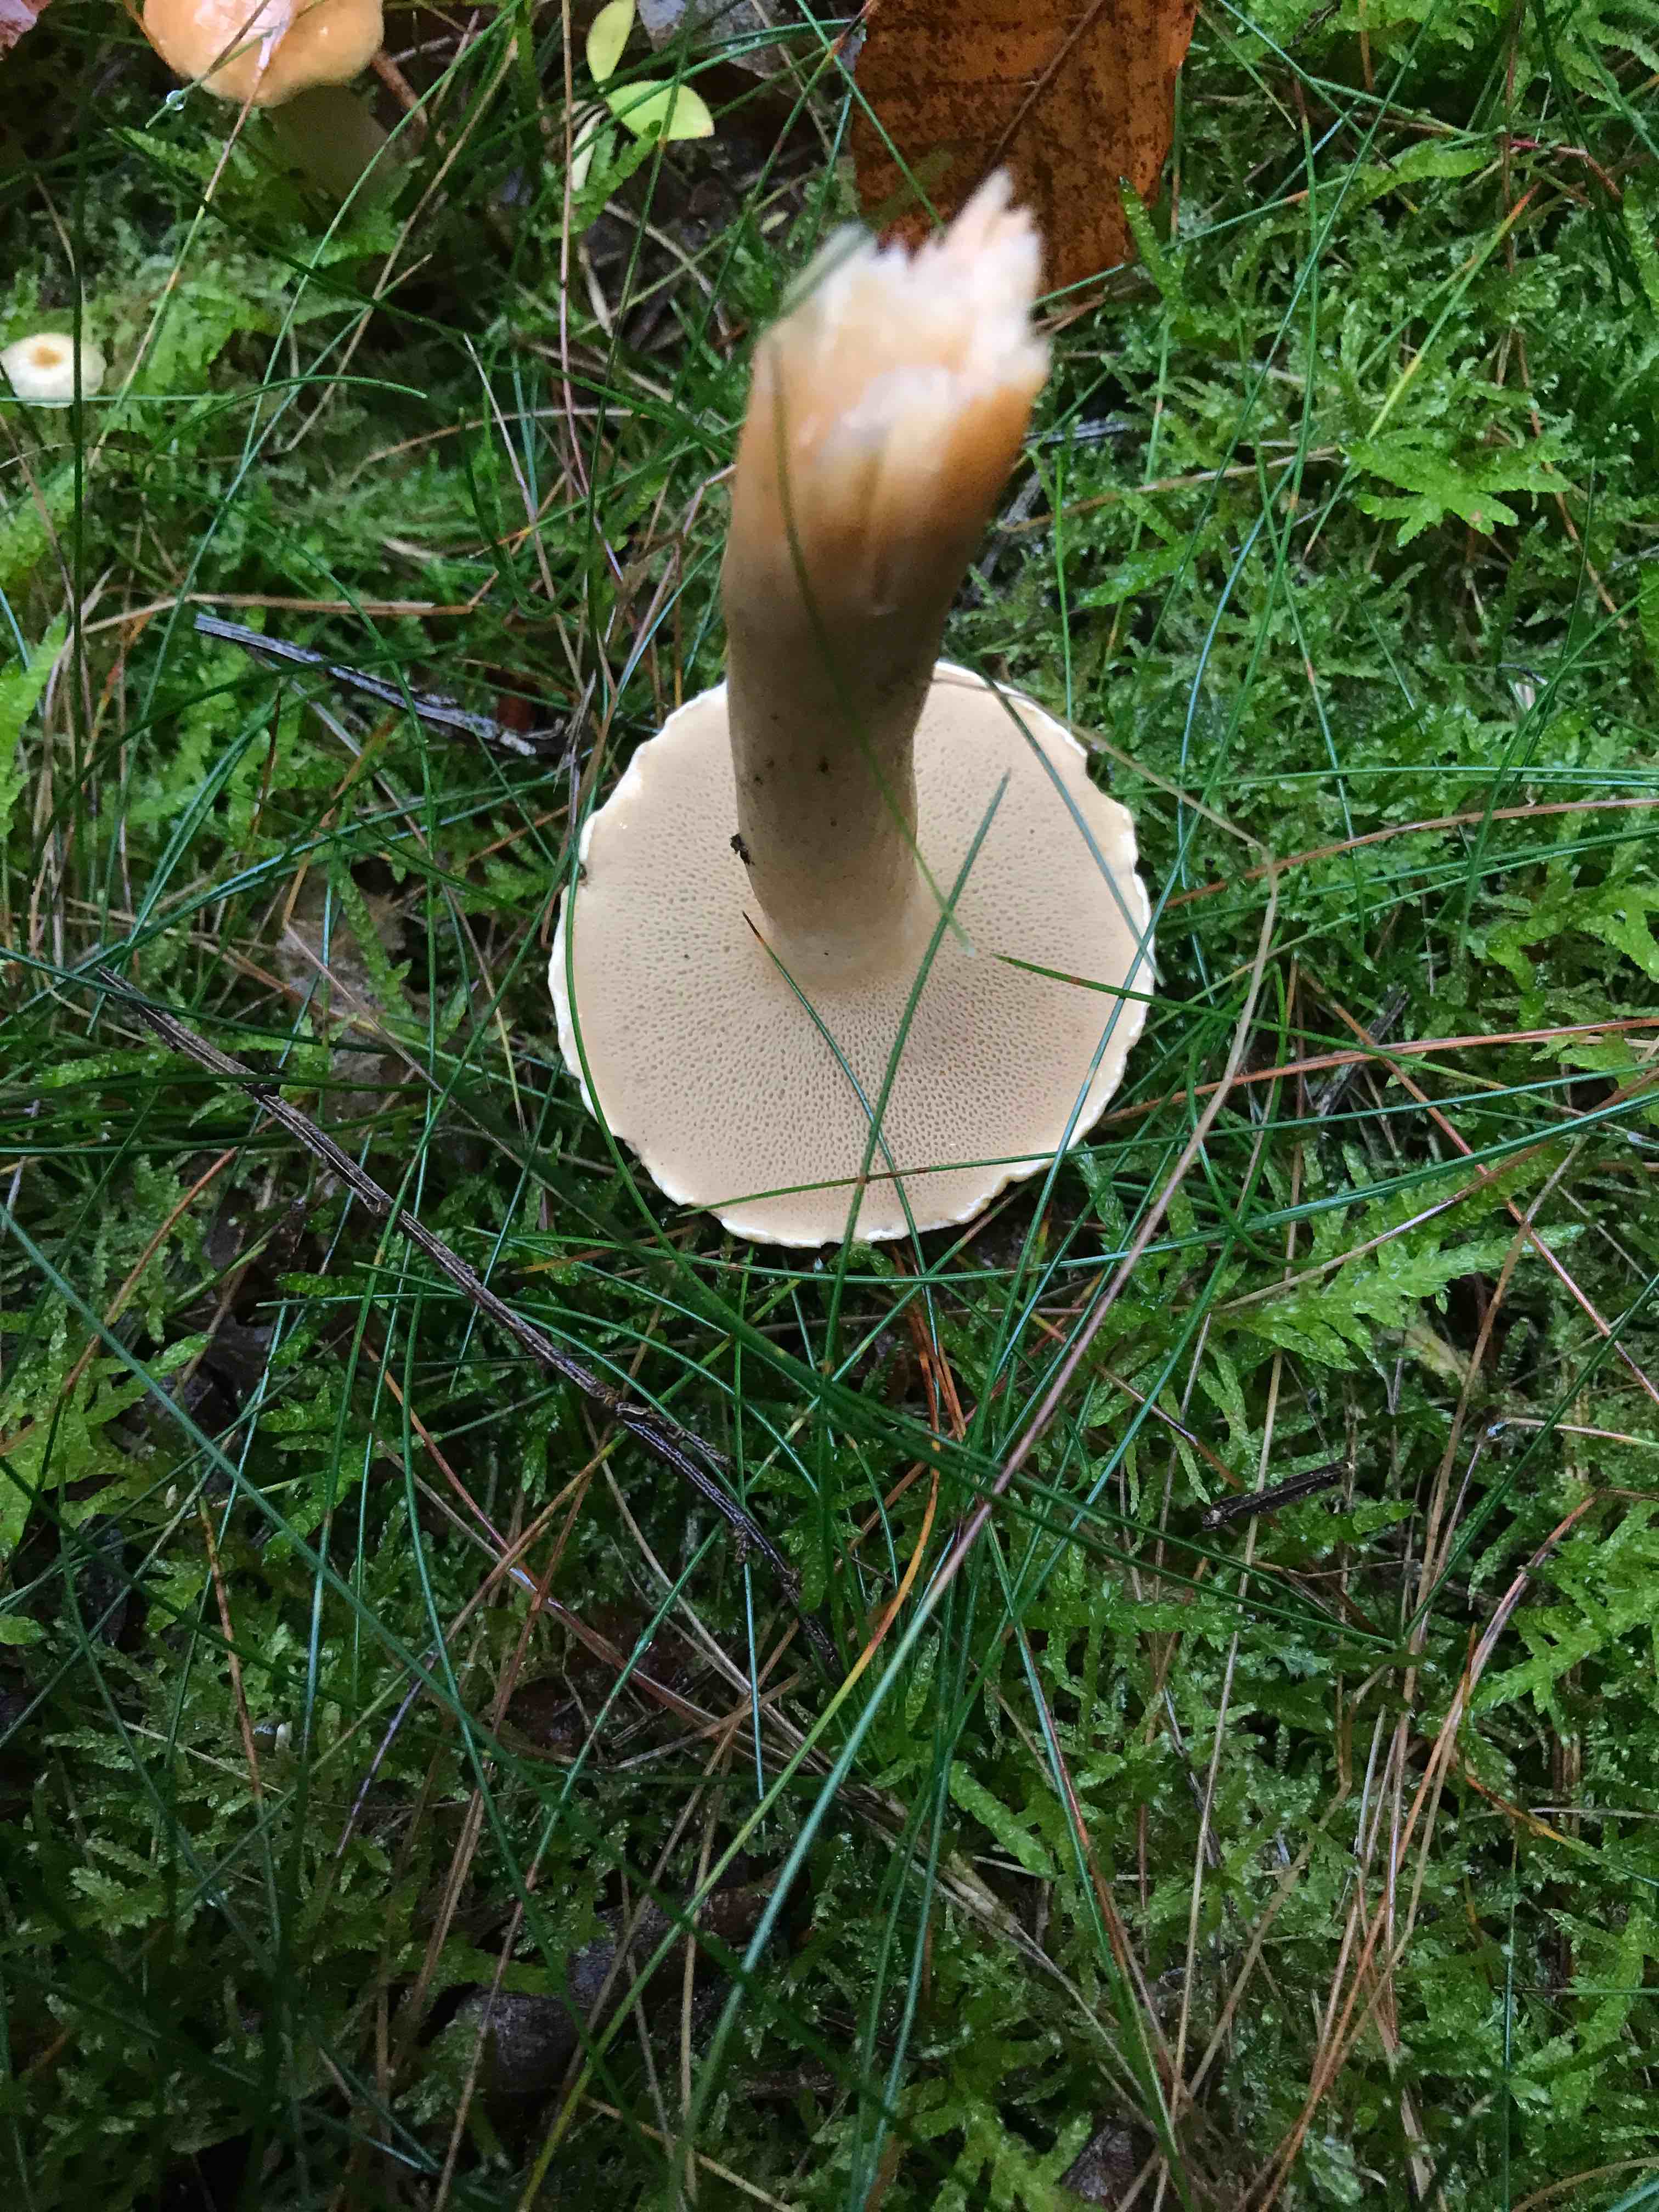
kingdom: Fungi
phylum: Basidiomycota
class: Agaricomycetes
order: Boletales
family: Suillaceae
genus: Suillus
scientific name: Suillus bovinus
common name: grovporet slimrørhat
